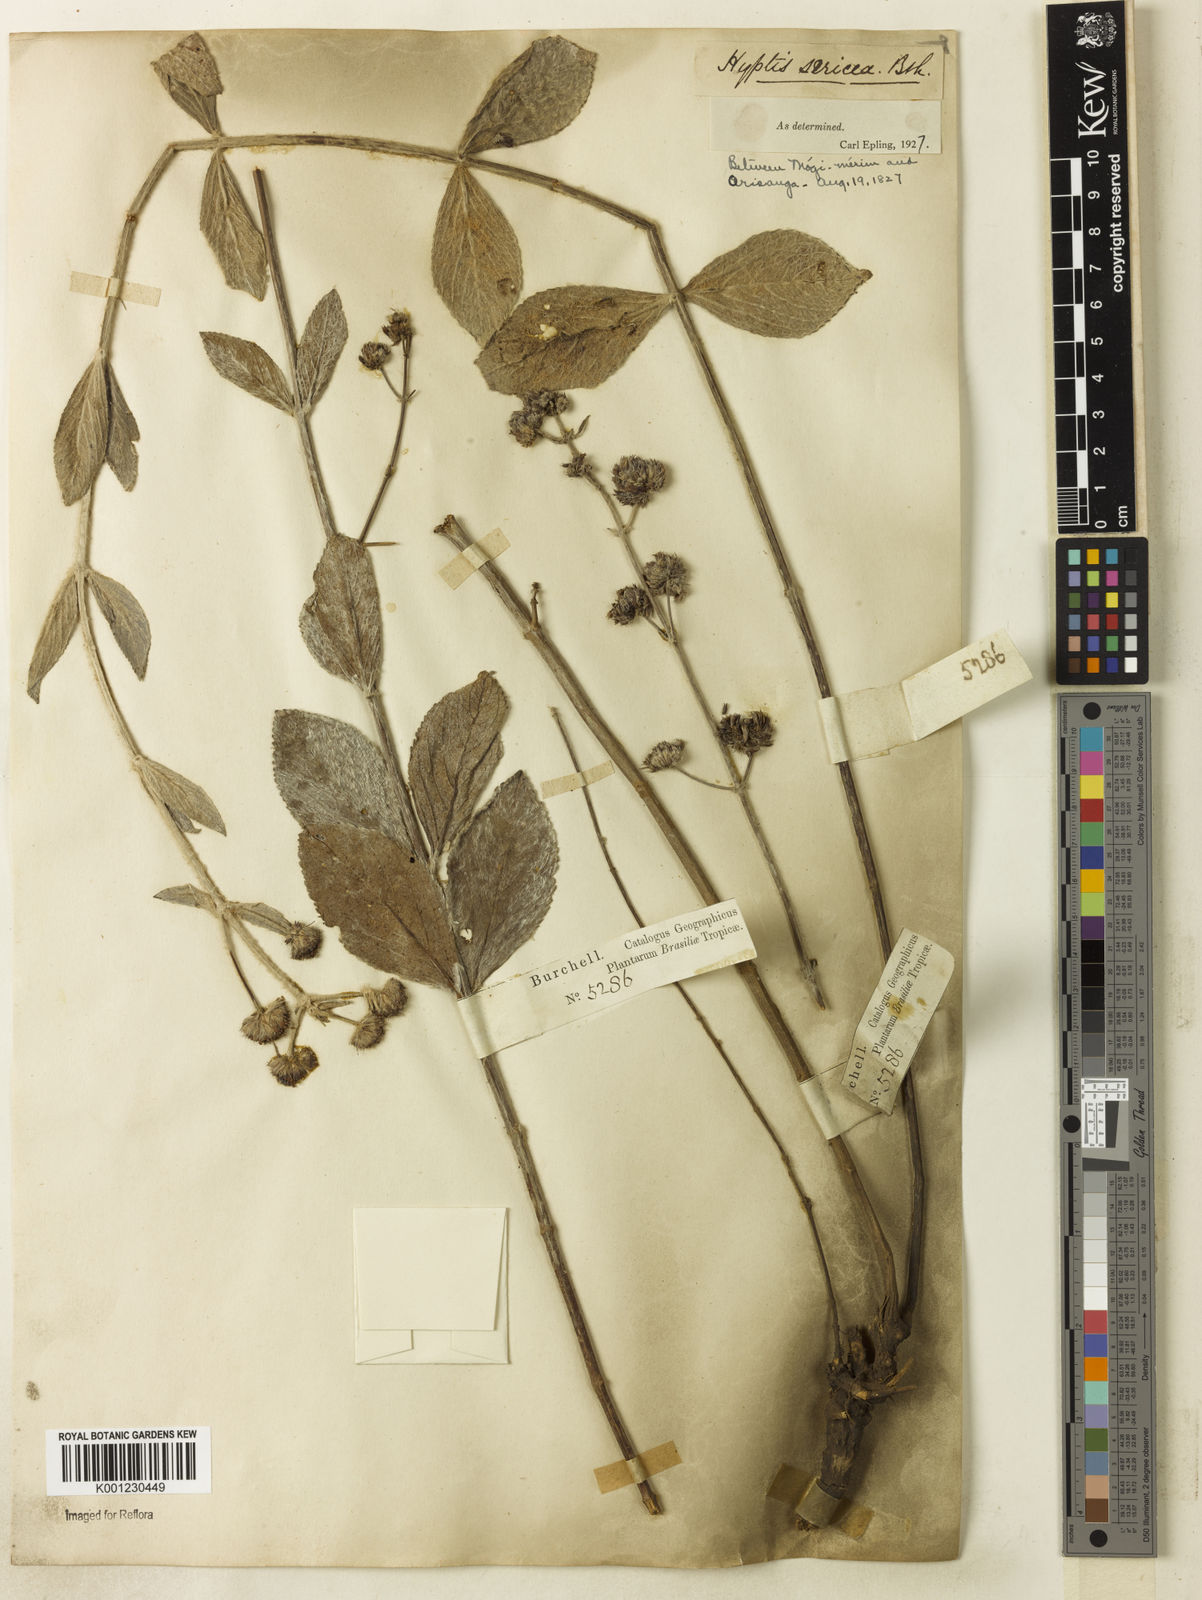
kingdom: Plantae
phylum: Tracheophyta
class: Magnoliopsida
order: Lamiales
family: Lamiaceae
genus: Hyptis
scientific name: Hyptis sericea
